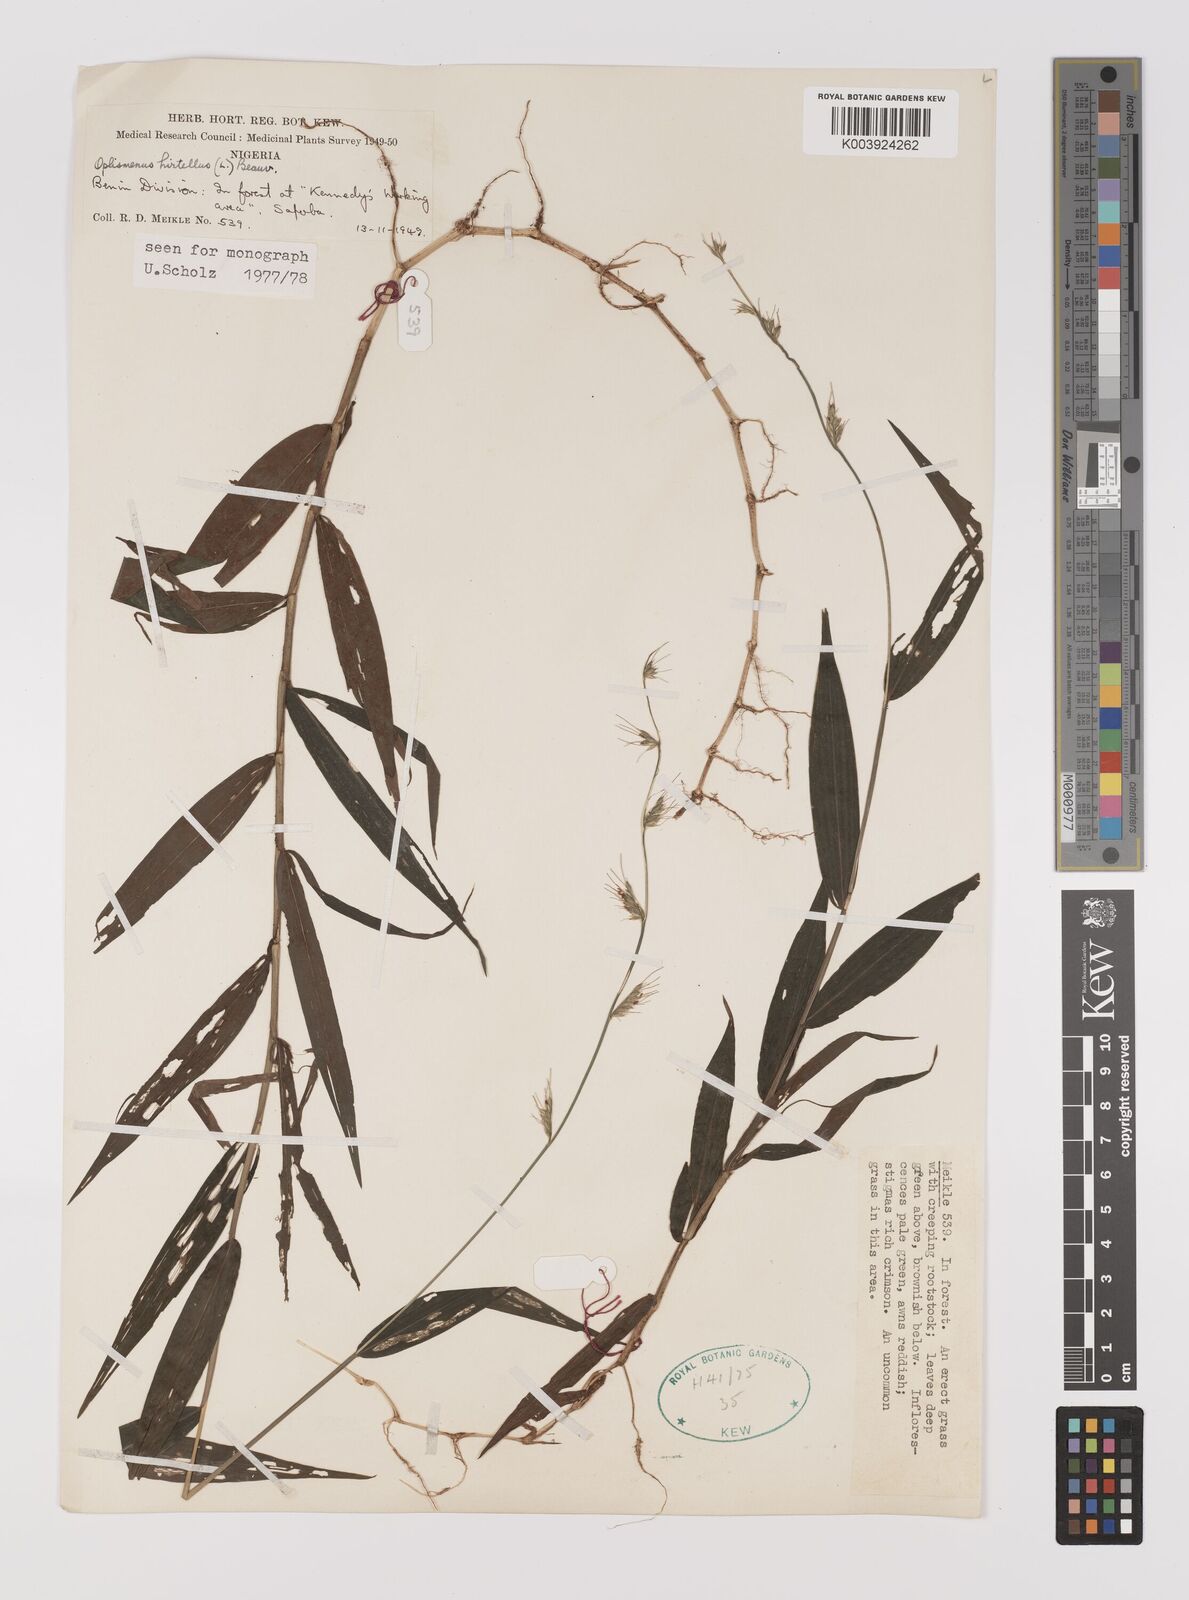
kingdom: Plantae
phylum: Tracheophyta
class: Liliopsida
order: Poales
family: Poaceae
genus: Oplismenus
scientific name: Oplismenus hirtellus
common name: Basketgrass
